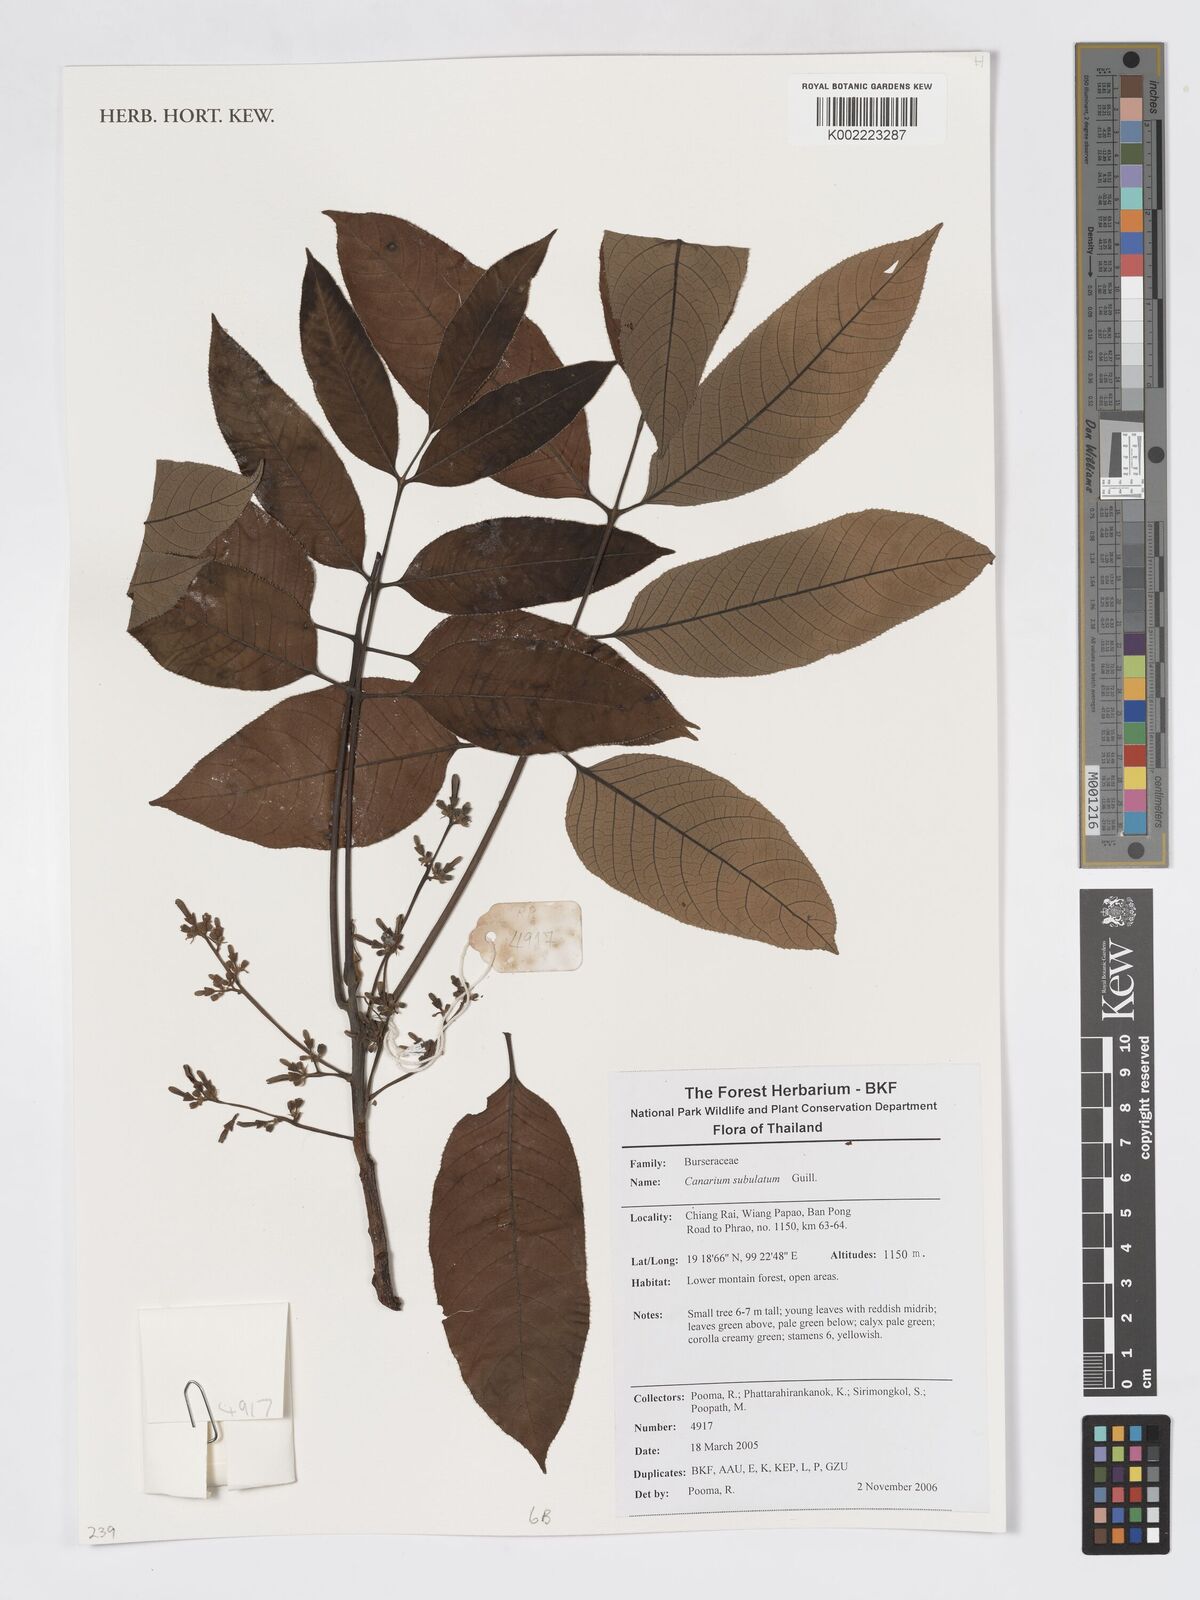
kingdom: Plantae
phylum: Tracheophyta
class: Magnoliopsida
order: Sapindales
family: Burseraceae
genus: Canarium
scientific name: Canarium subulatum
